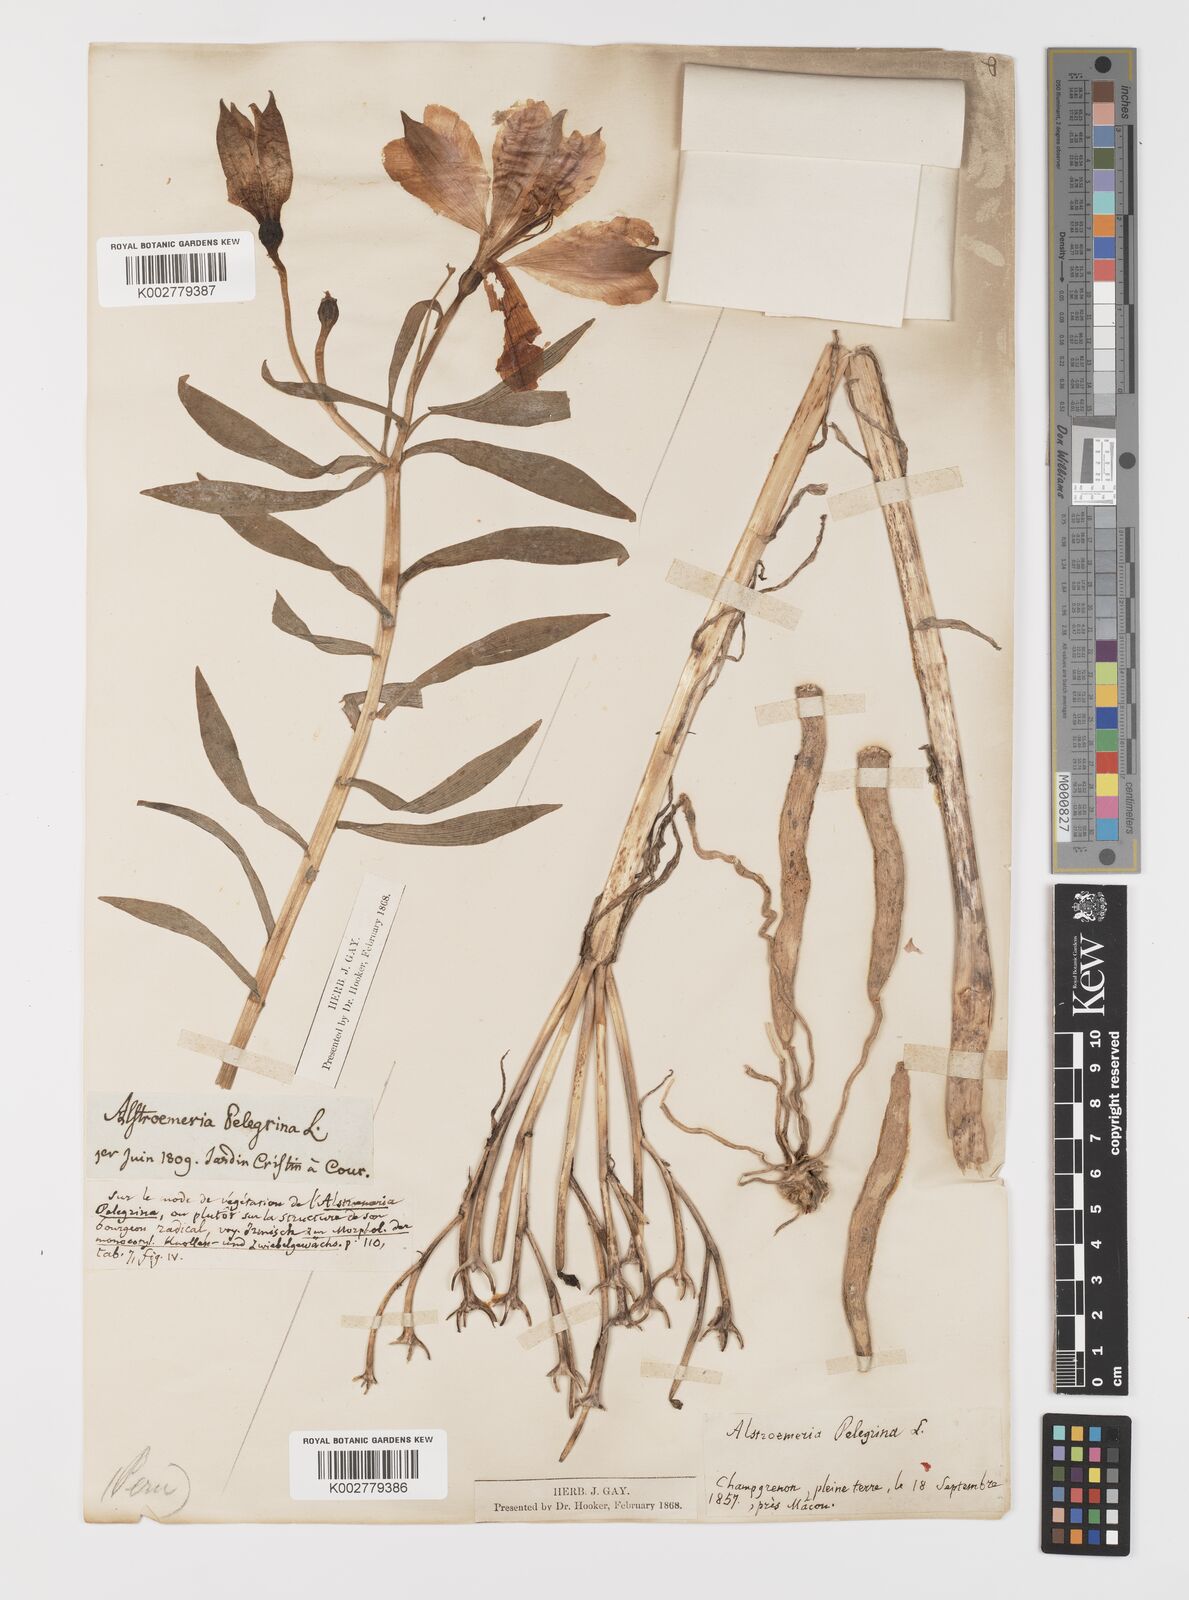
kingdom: Plantae
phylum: Tracheophyta
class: Liliopsida
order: Liliales
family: Alstroemeriaceae
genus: Alstroemeria
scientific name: Alstroemeria pelegrina
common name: Peruvian-lily
